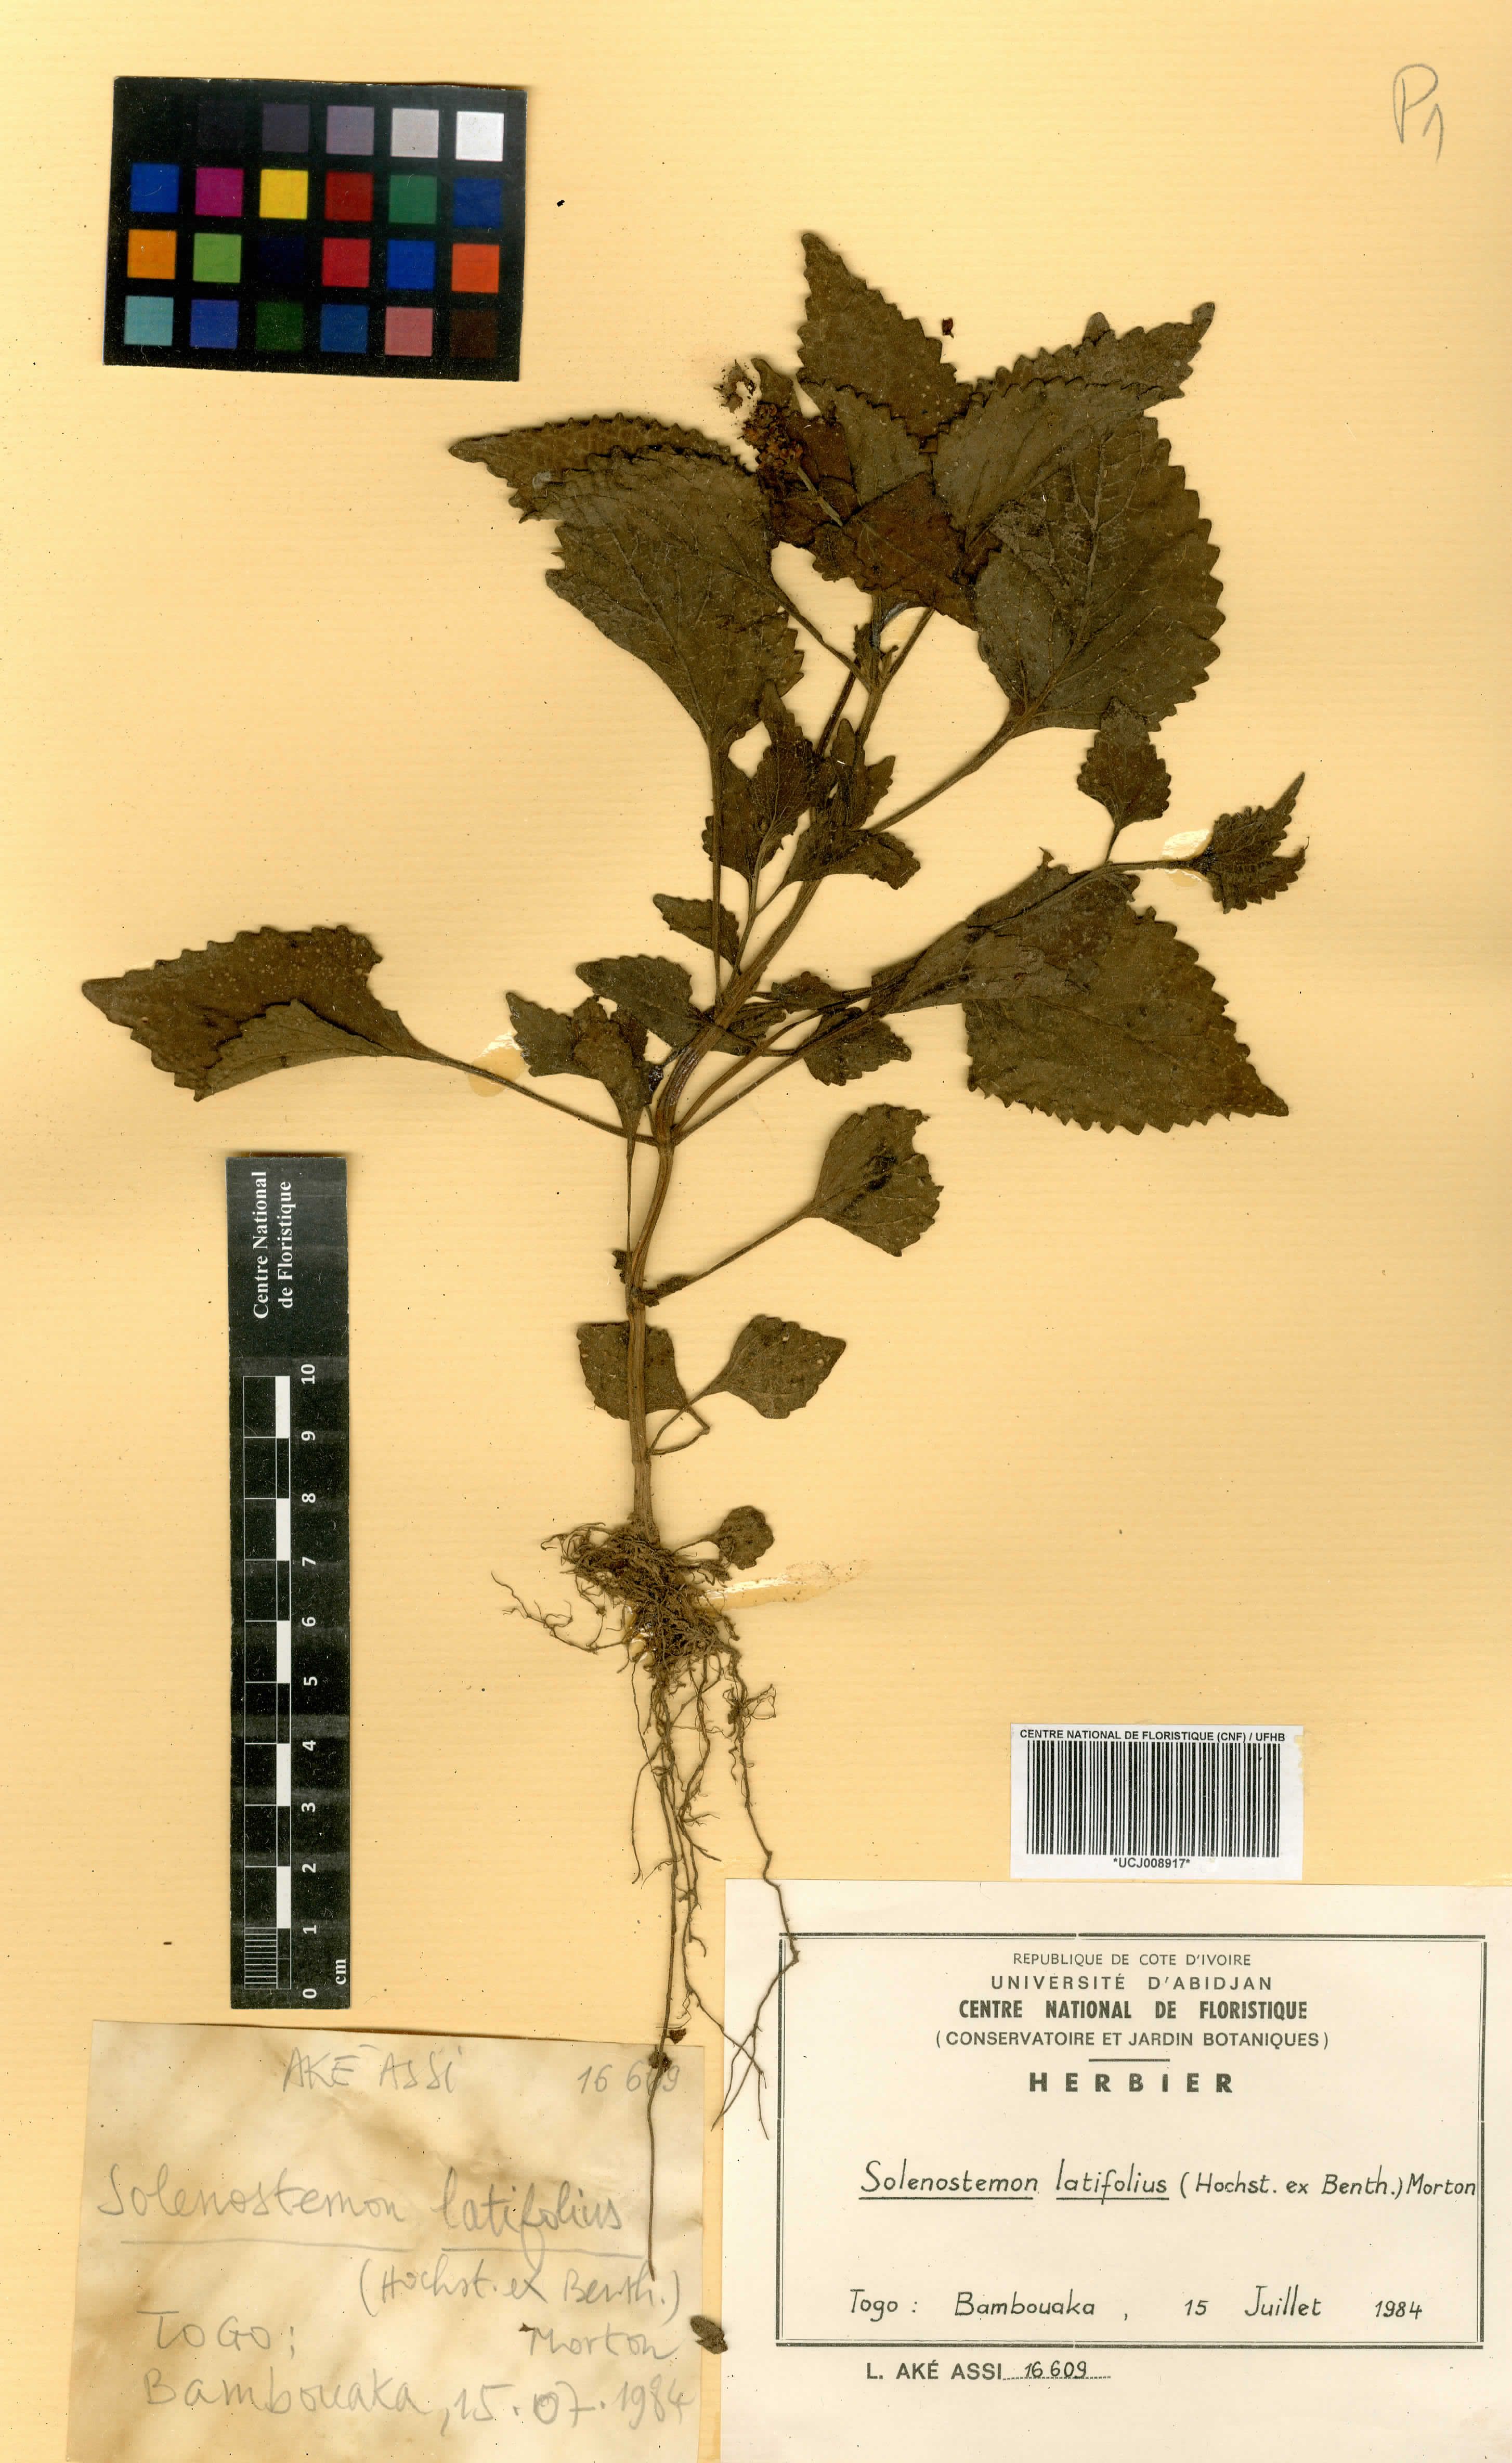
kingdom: Plantae
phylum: Tracheophyta
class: Magnoliopsida
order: Lamiales
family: Lamiaceae
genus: Coleus
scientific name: Coleus bojeri
